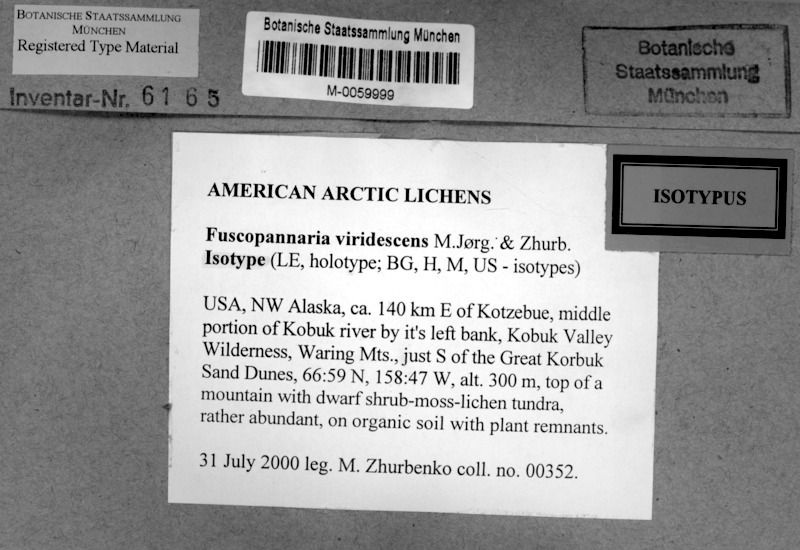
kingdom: Fungi
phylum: Ascomycota
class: Lecanoromycetes
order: Peltigerales
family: Pannariaceae
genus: Fuscopannaria
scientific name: Fuscopannaria viridescens
